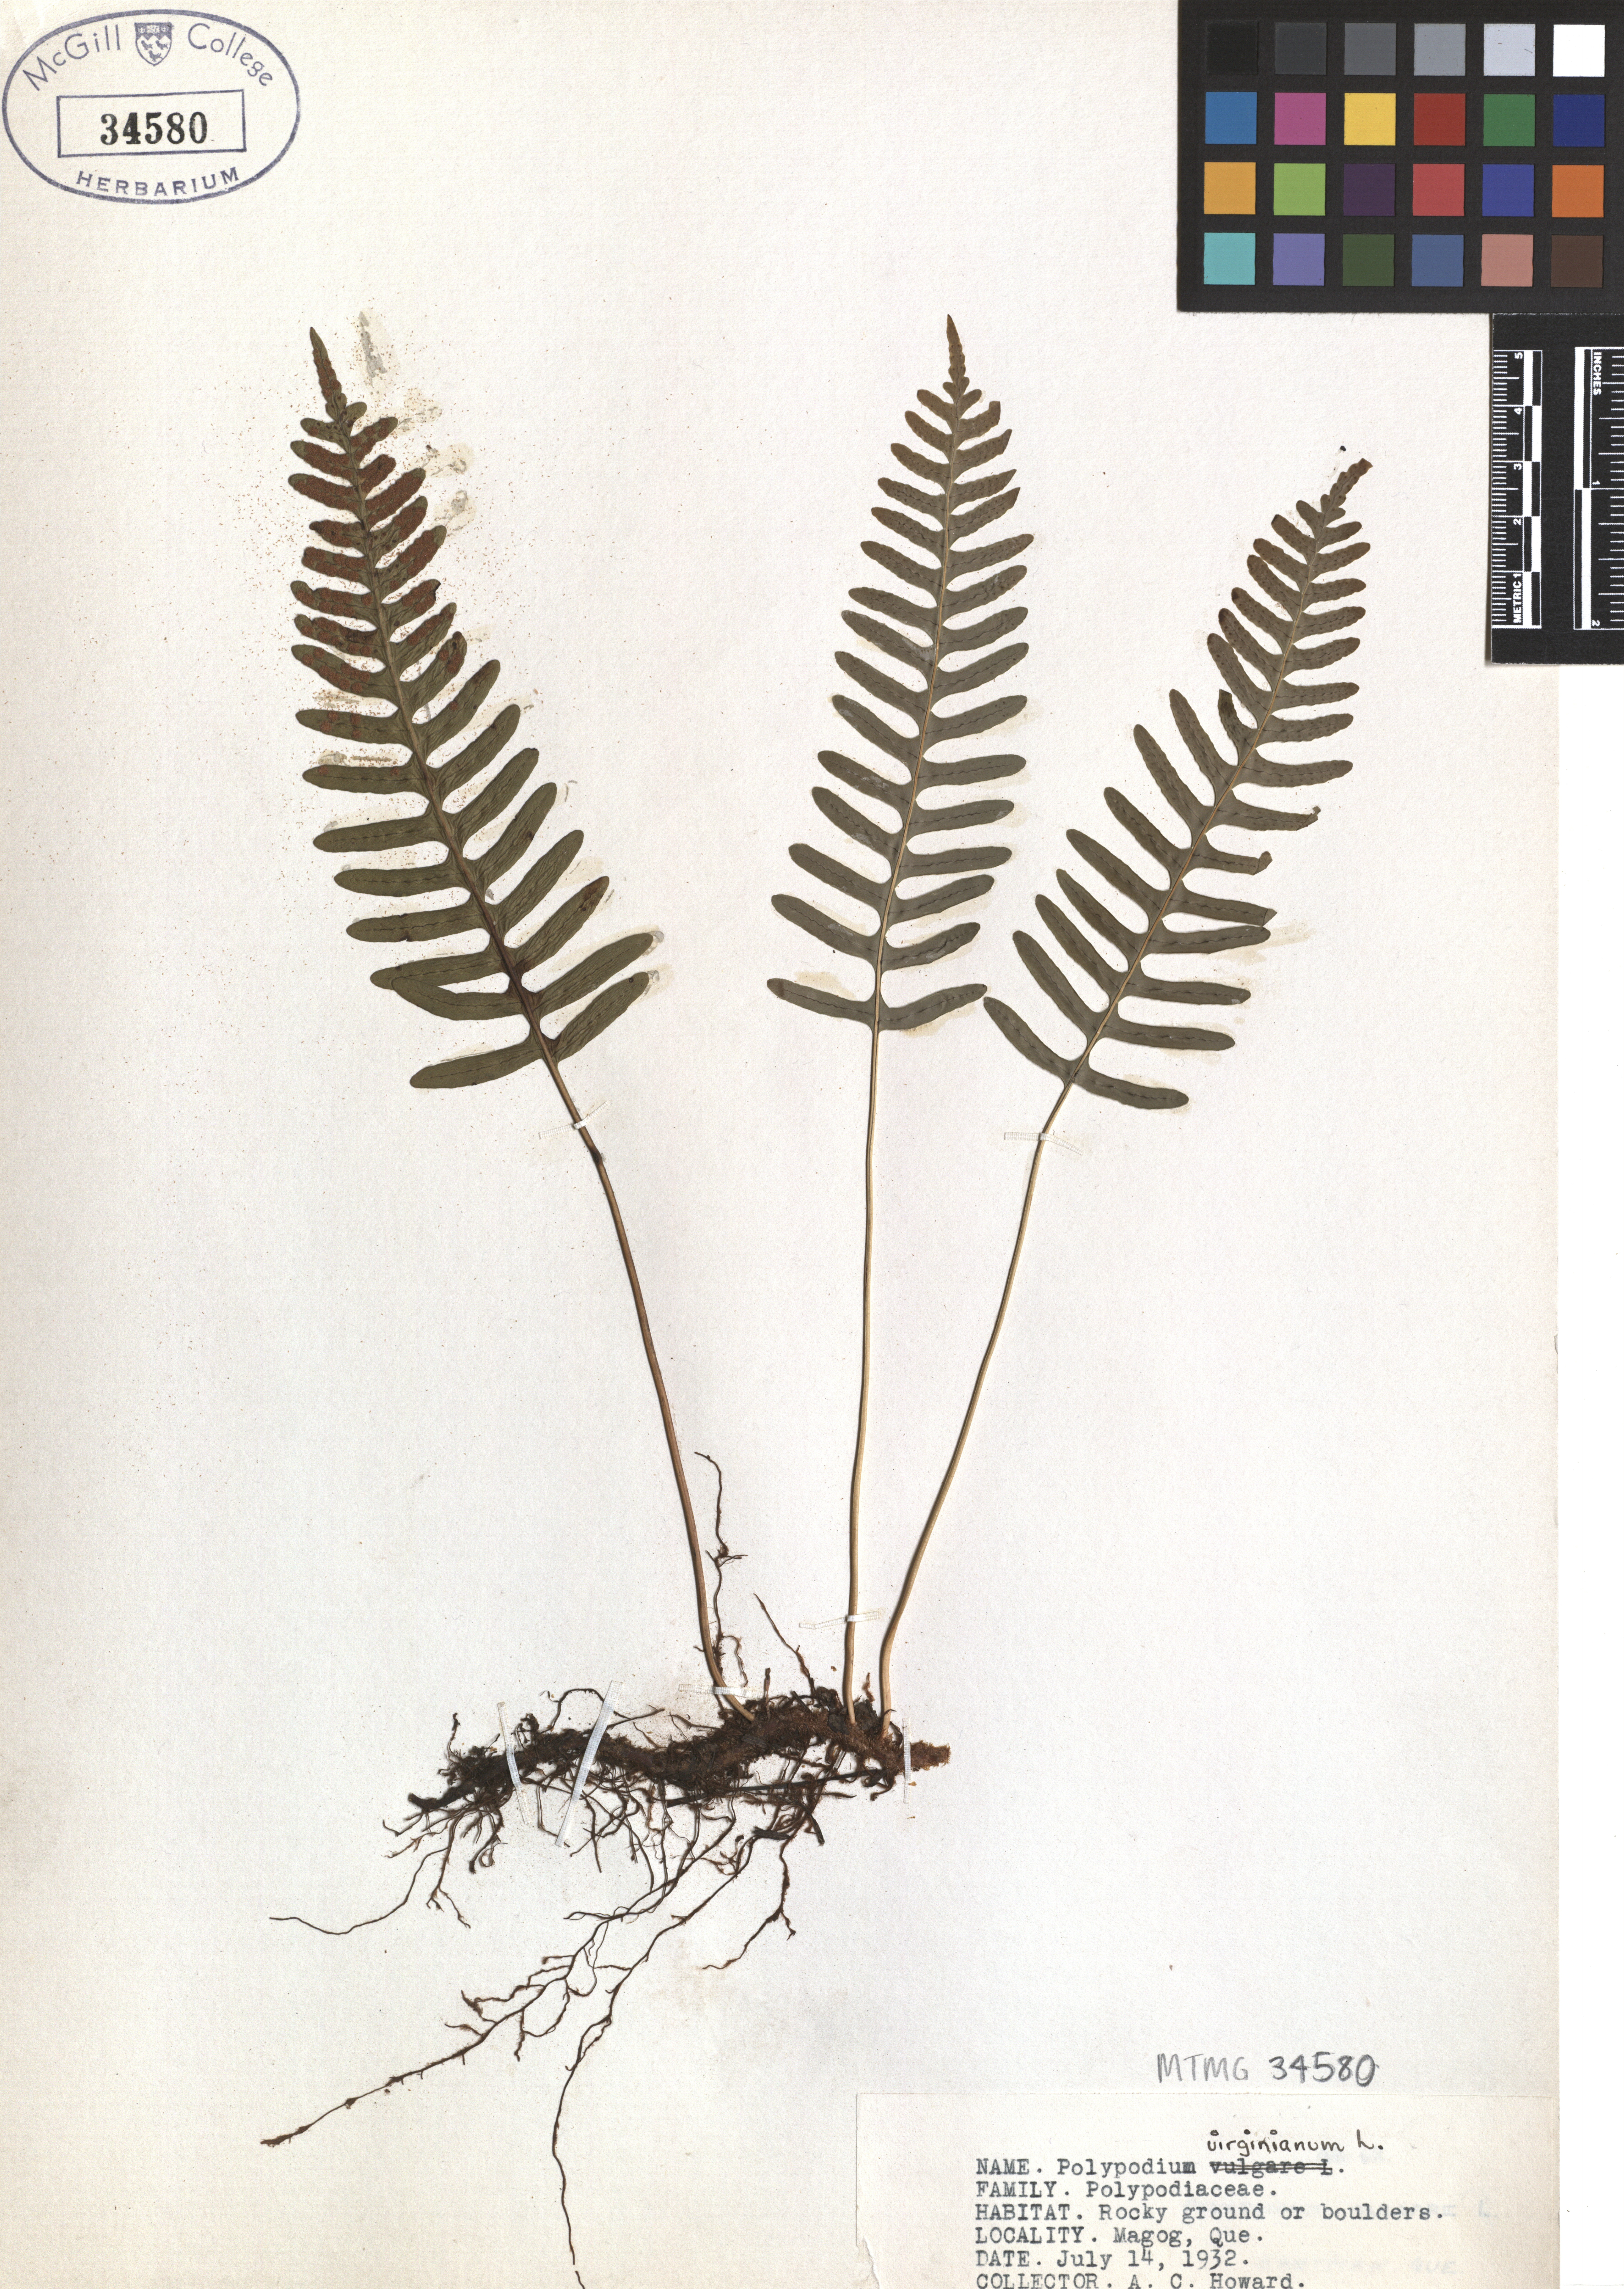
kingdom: Plantae
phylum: Tracheophyta
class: Polypodiopsida
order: Polypodiales
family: Polypodiaceae
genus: Polypodium
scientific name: Polypodium virginianum
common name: American wall fern
